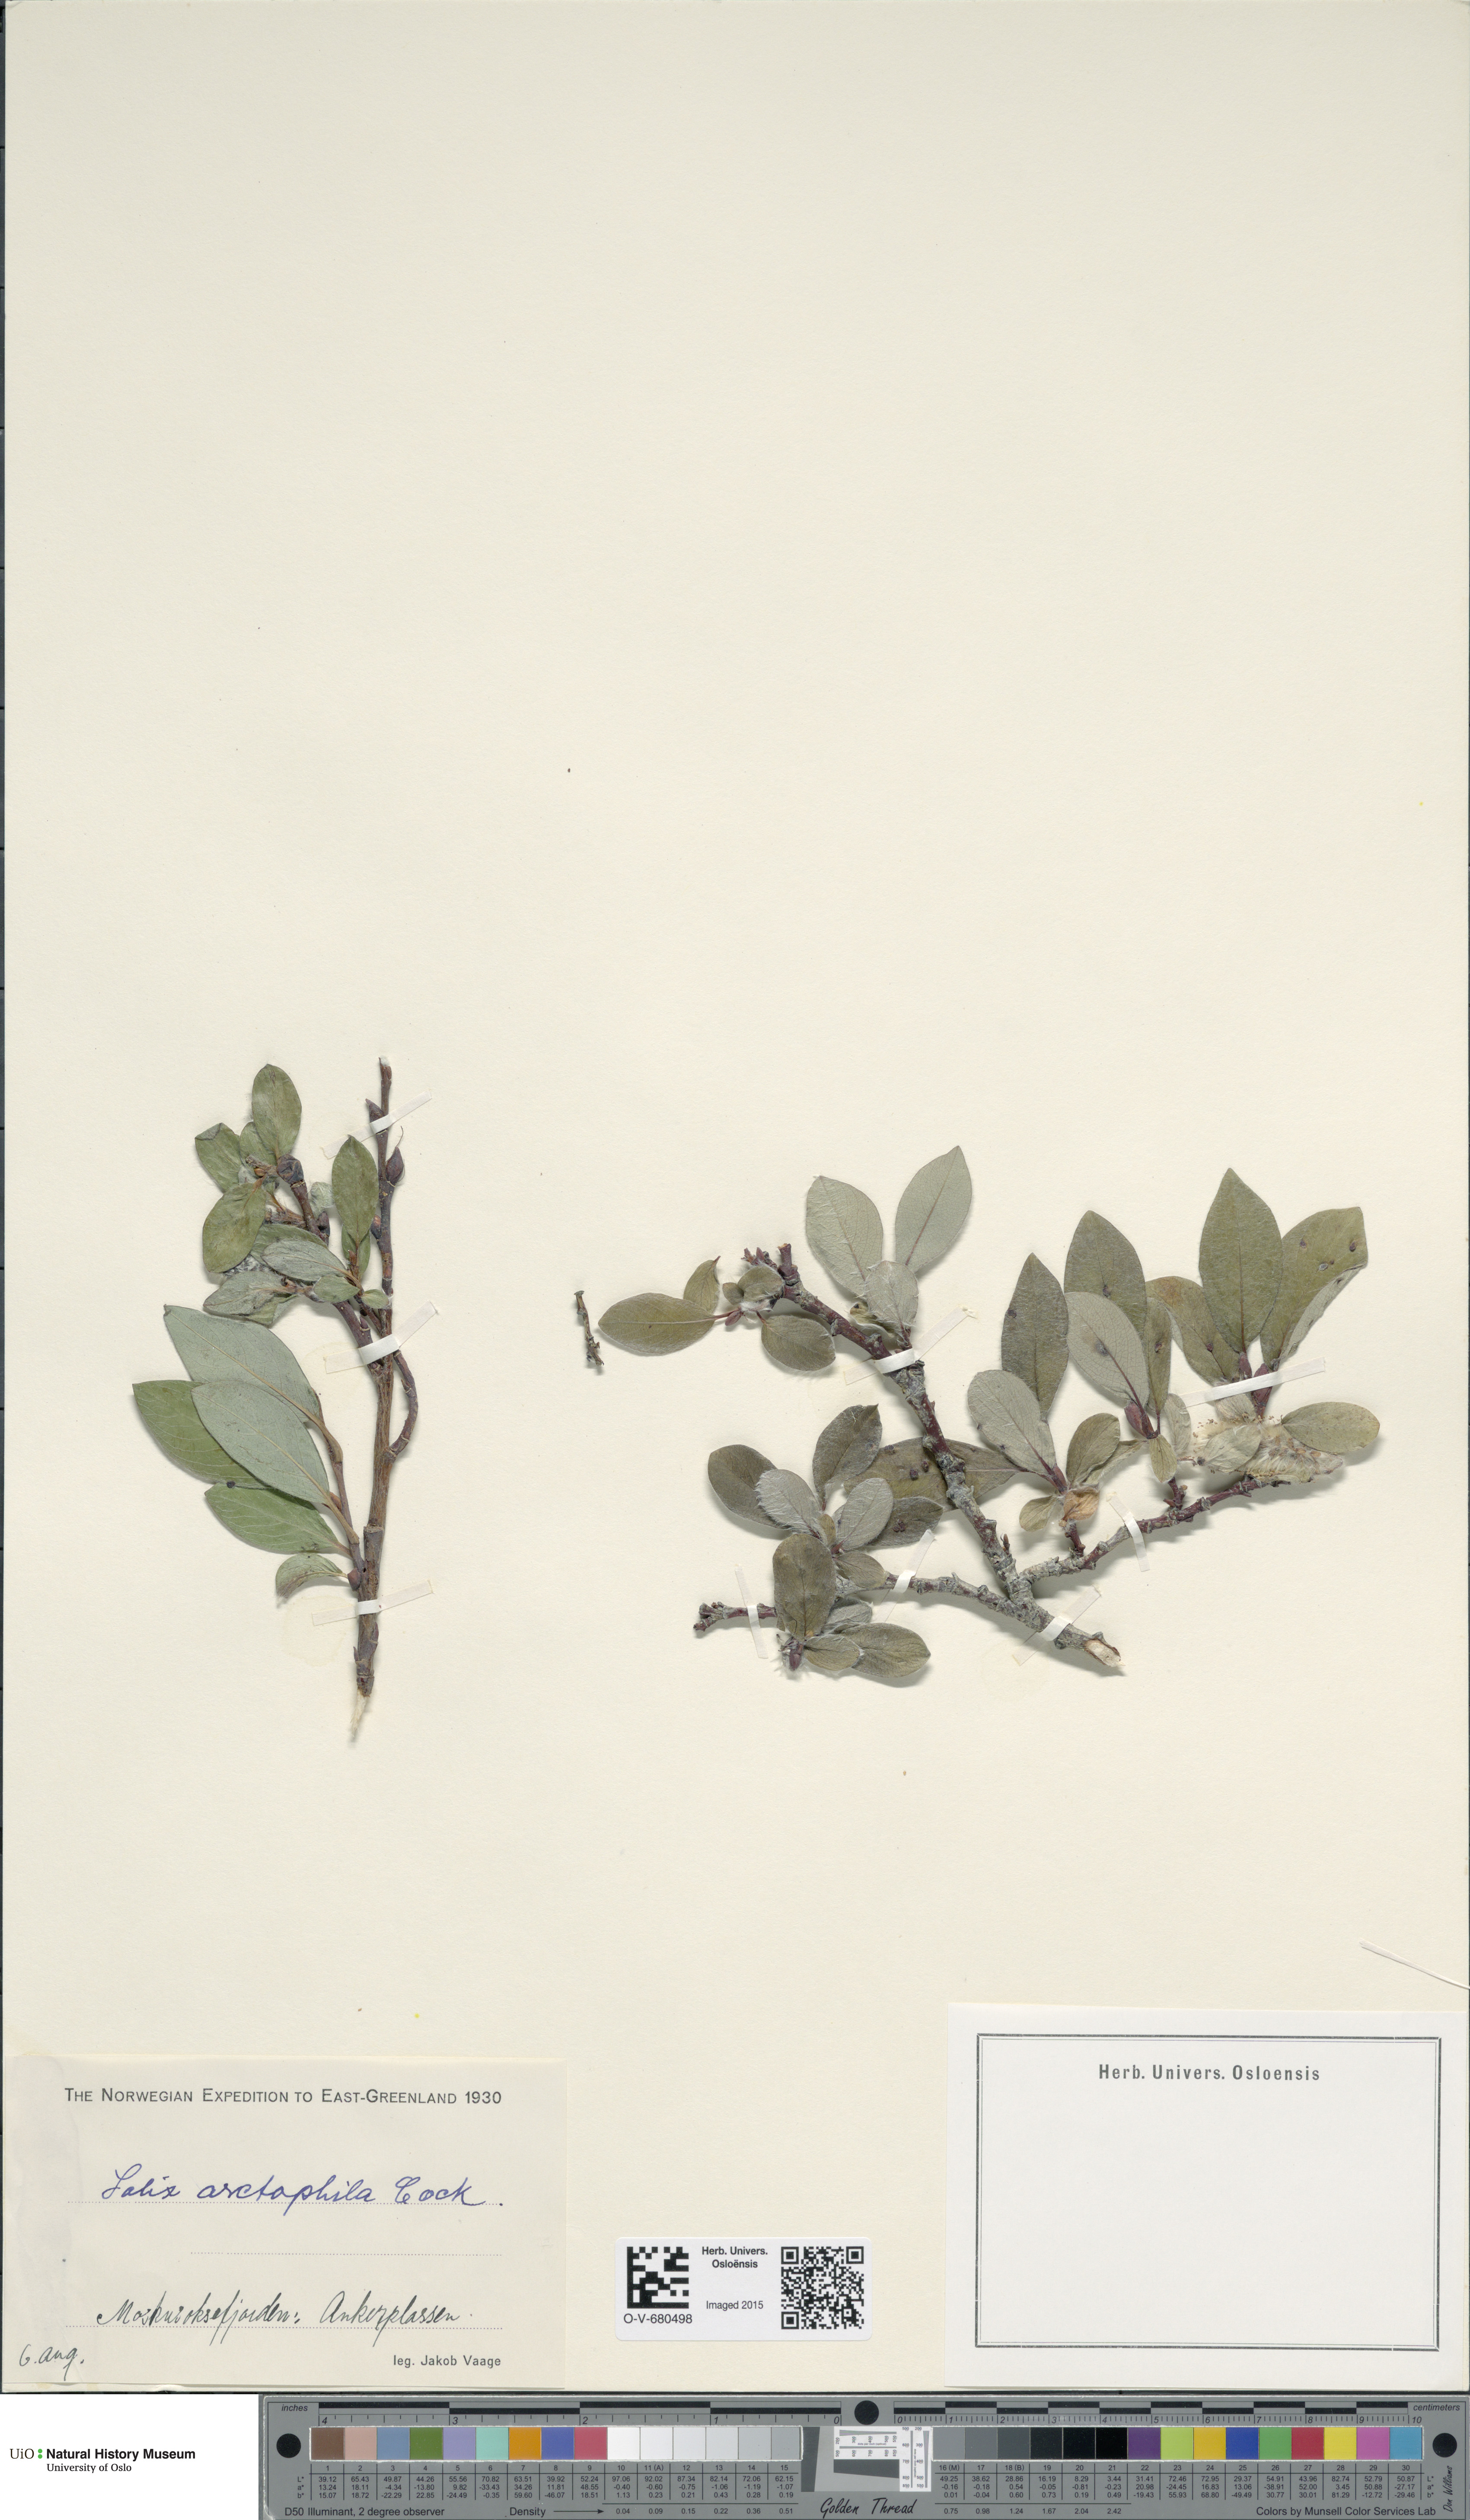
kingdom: Plantae
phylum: Tracheophyta
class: Magnoliopsida
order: Malpighiales
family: Salicaceae
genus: Salix
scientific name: Salix arctophila
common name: Greenland willow
